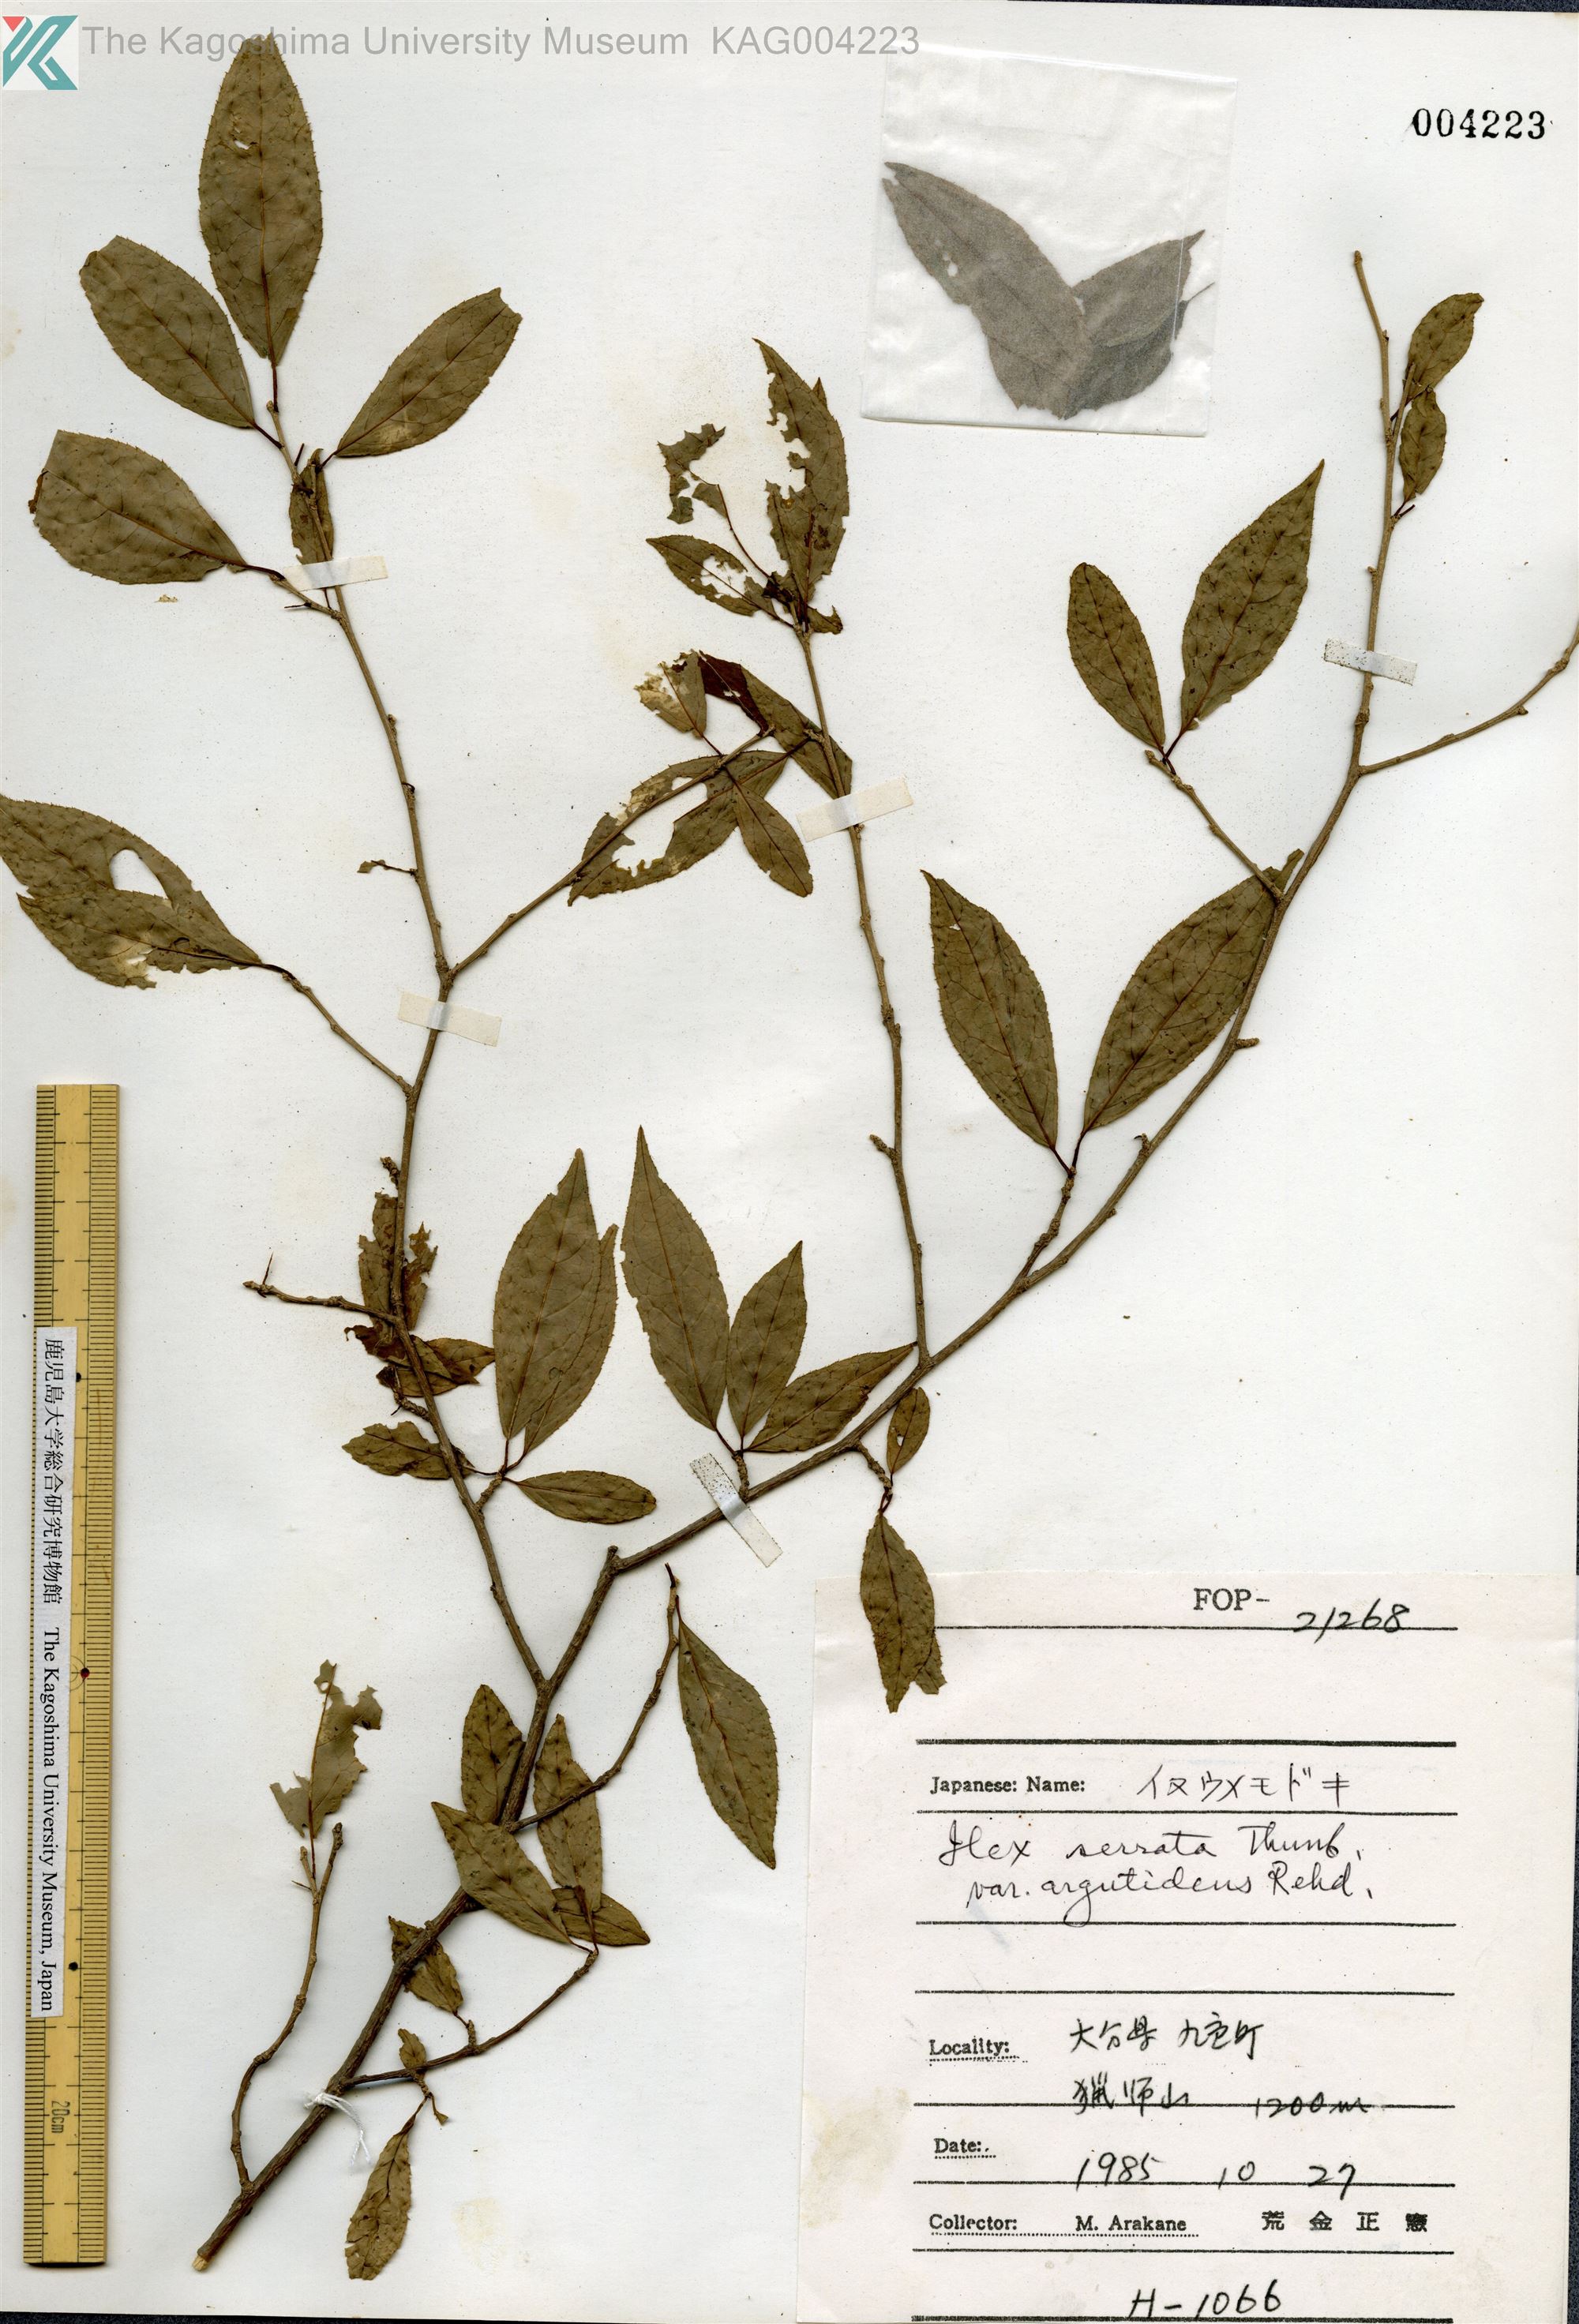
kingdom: Plantae
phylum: Tracheophyta
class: Magnoliopsida
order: Aquifoliales
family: Aquifoliaceae
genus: Ilex
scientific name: Ilex serrata
